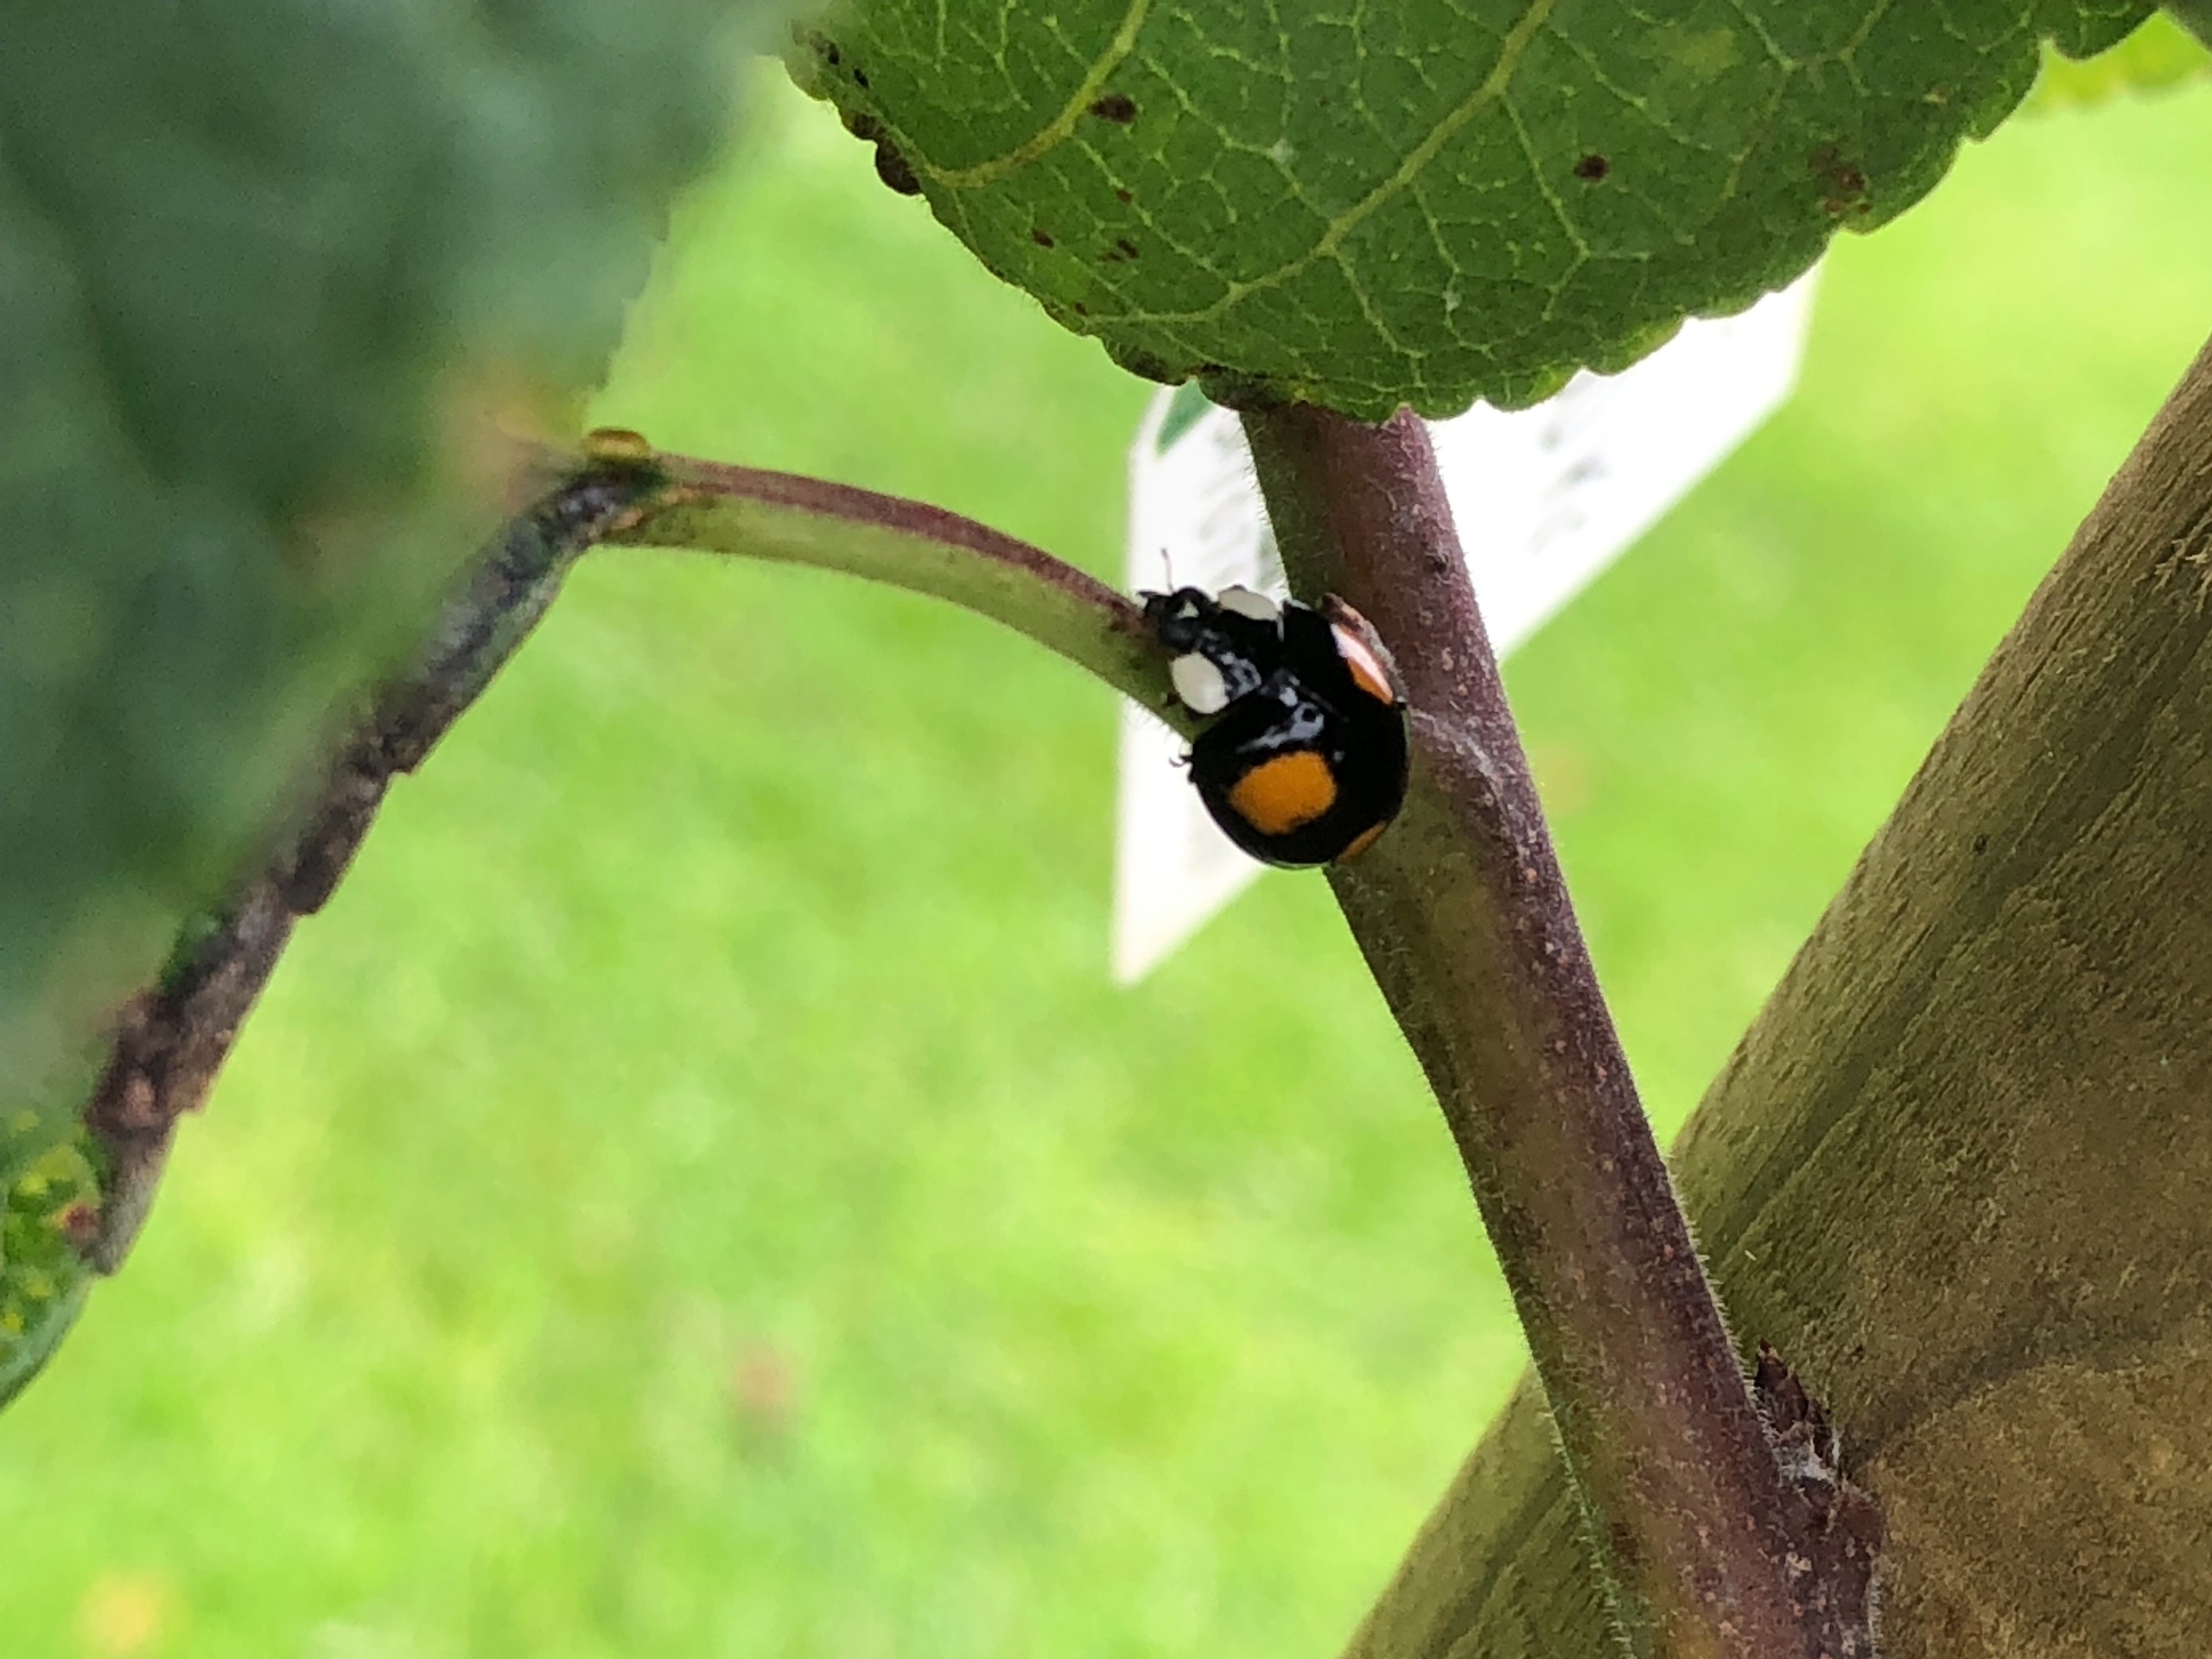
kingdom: Animalia
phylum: Arthropoda
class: Insecta
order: Coleoptera
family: Coccinellidae
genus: Harmonia
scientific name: Harmonia axyridis
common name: Harlekinmariehøne
